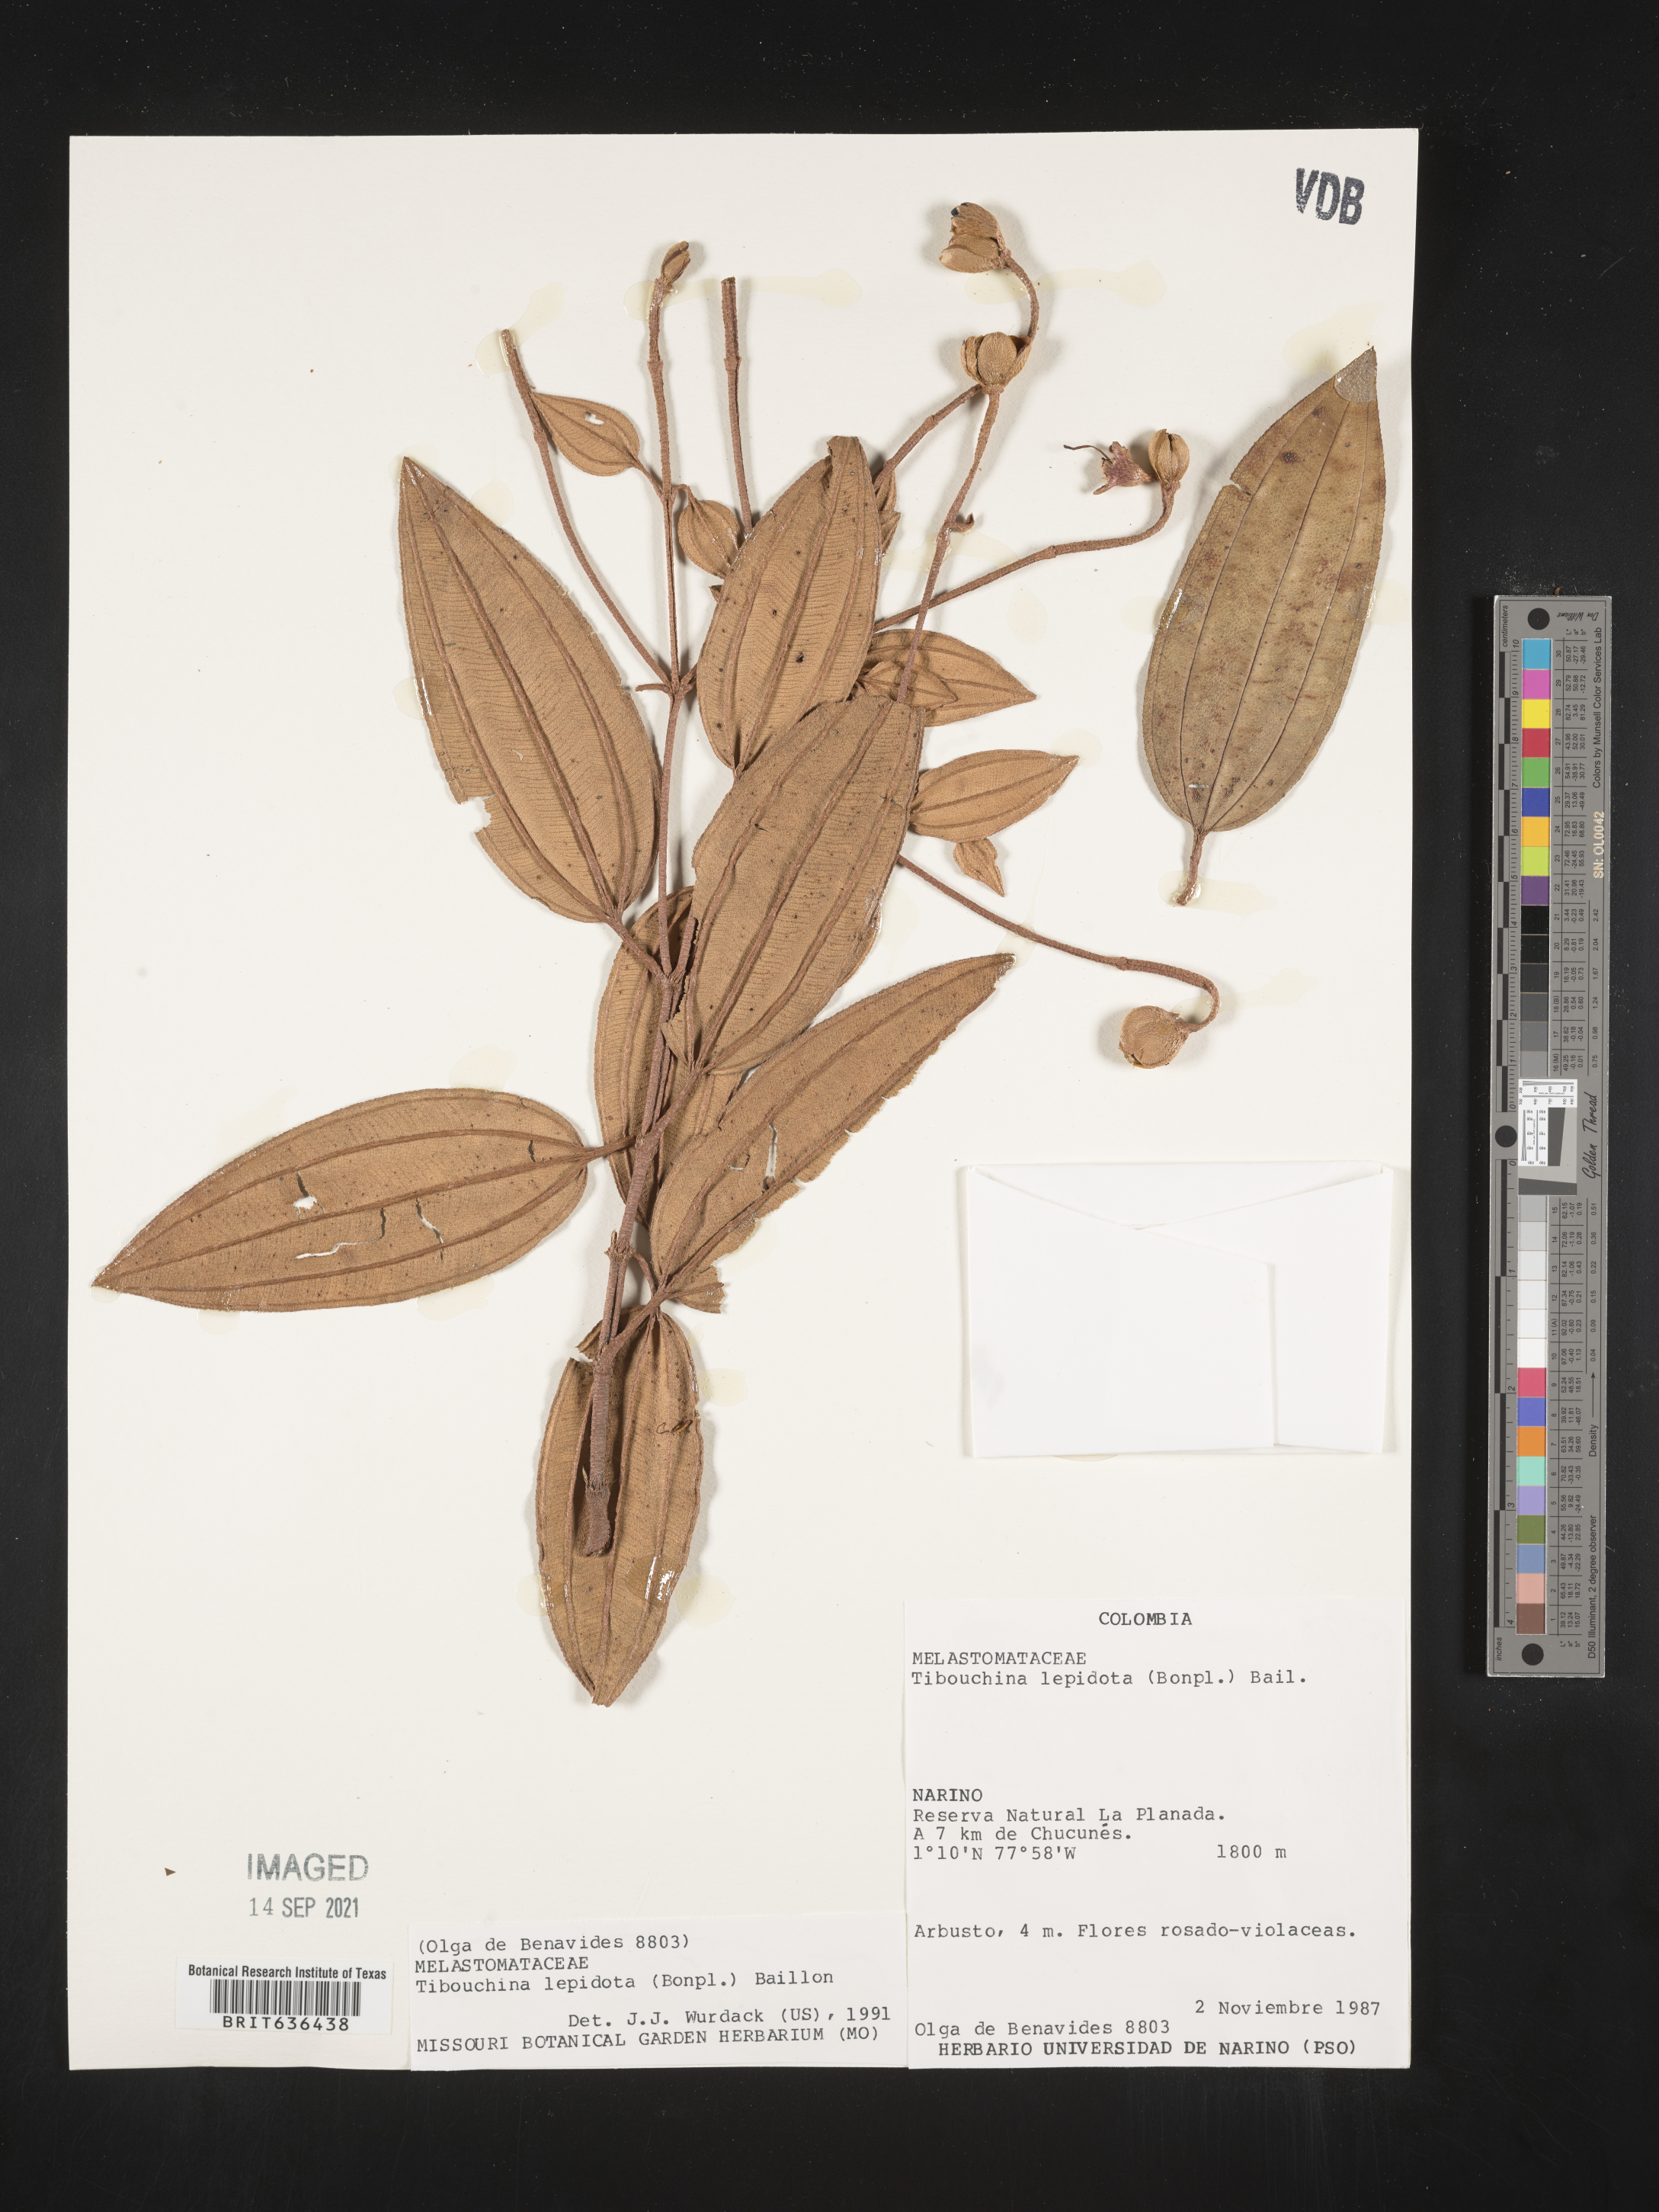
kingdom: Plantae
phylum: Tracheophyta
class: Magnoliopsida
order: Myrtales
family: Melastomataceae
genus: Tibouchina
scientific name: Tibouchina
